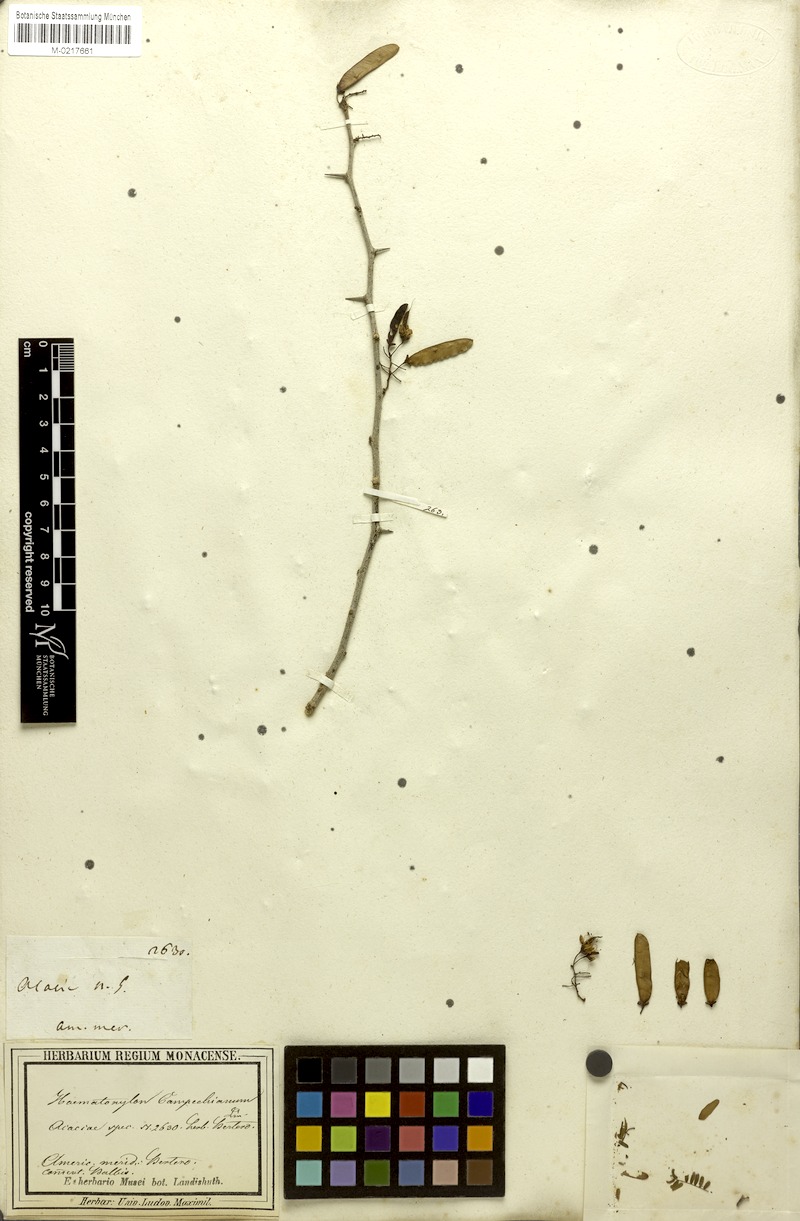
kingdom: Plantae
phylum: Tracheophyta
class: Magnoliopsida
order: Fabales
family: Fabaceae
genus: Haematoxylum
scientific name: Haematoxylum campechianum
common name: Logwood
